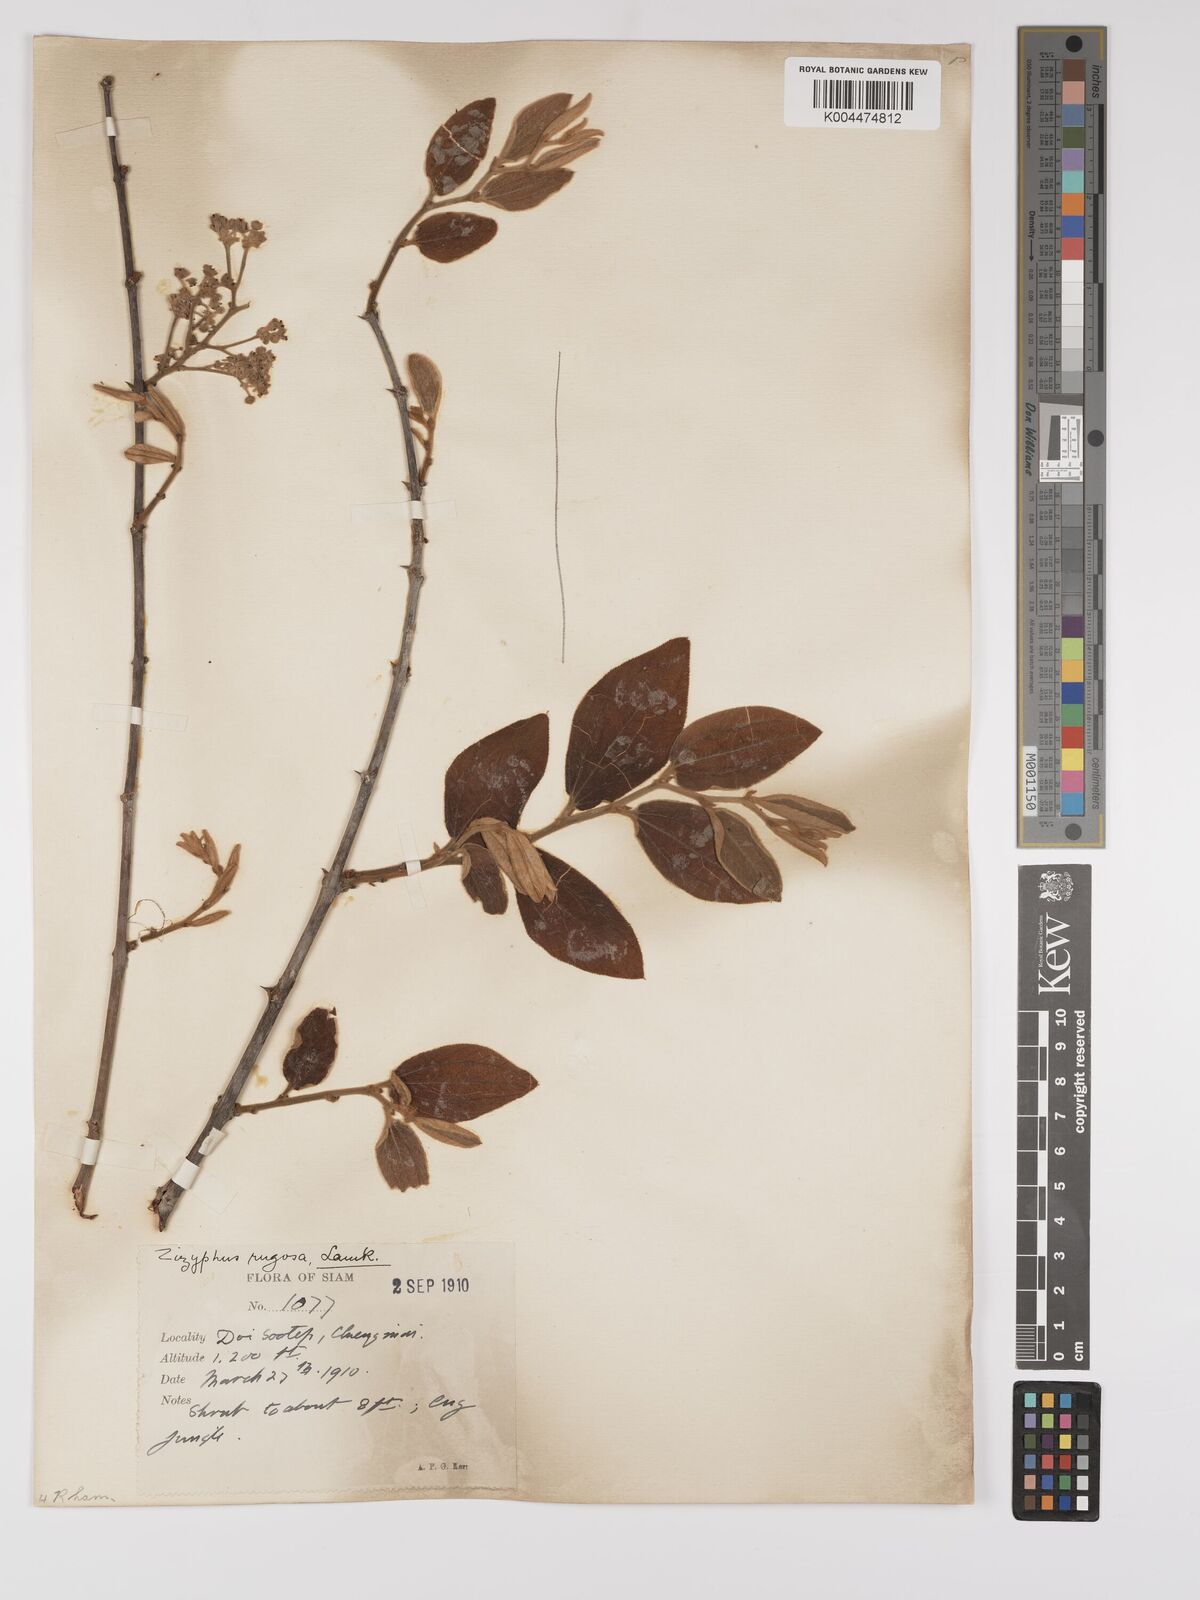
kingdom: Plantae
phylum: Tracheophyta
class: Magnoliopsida
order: Rosales
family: Rhamnaceae
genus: Ziziphus
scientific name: Ziziphus rugosa
